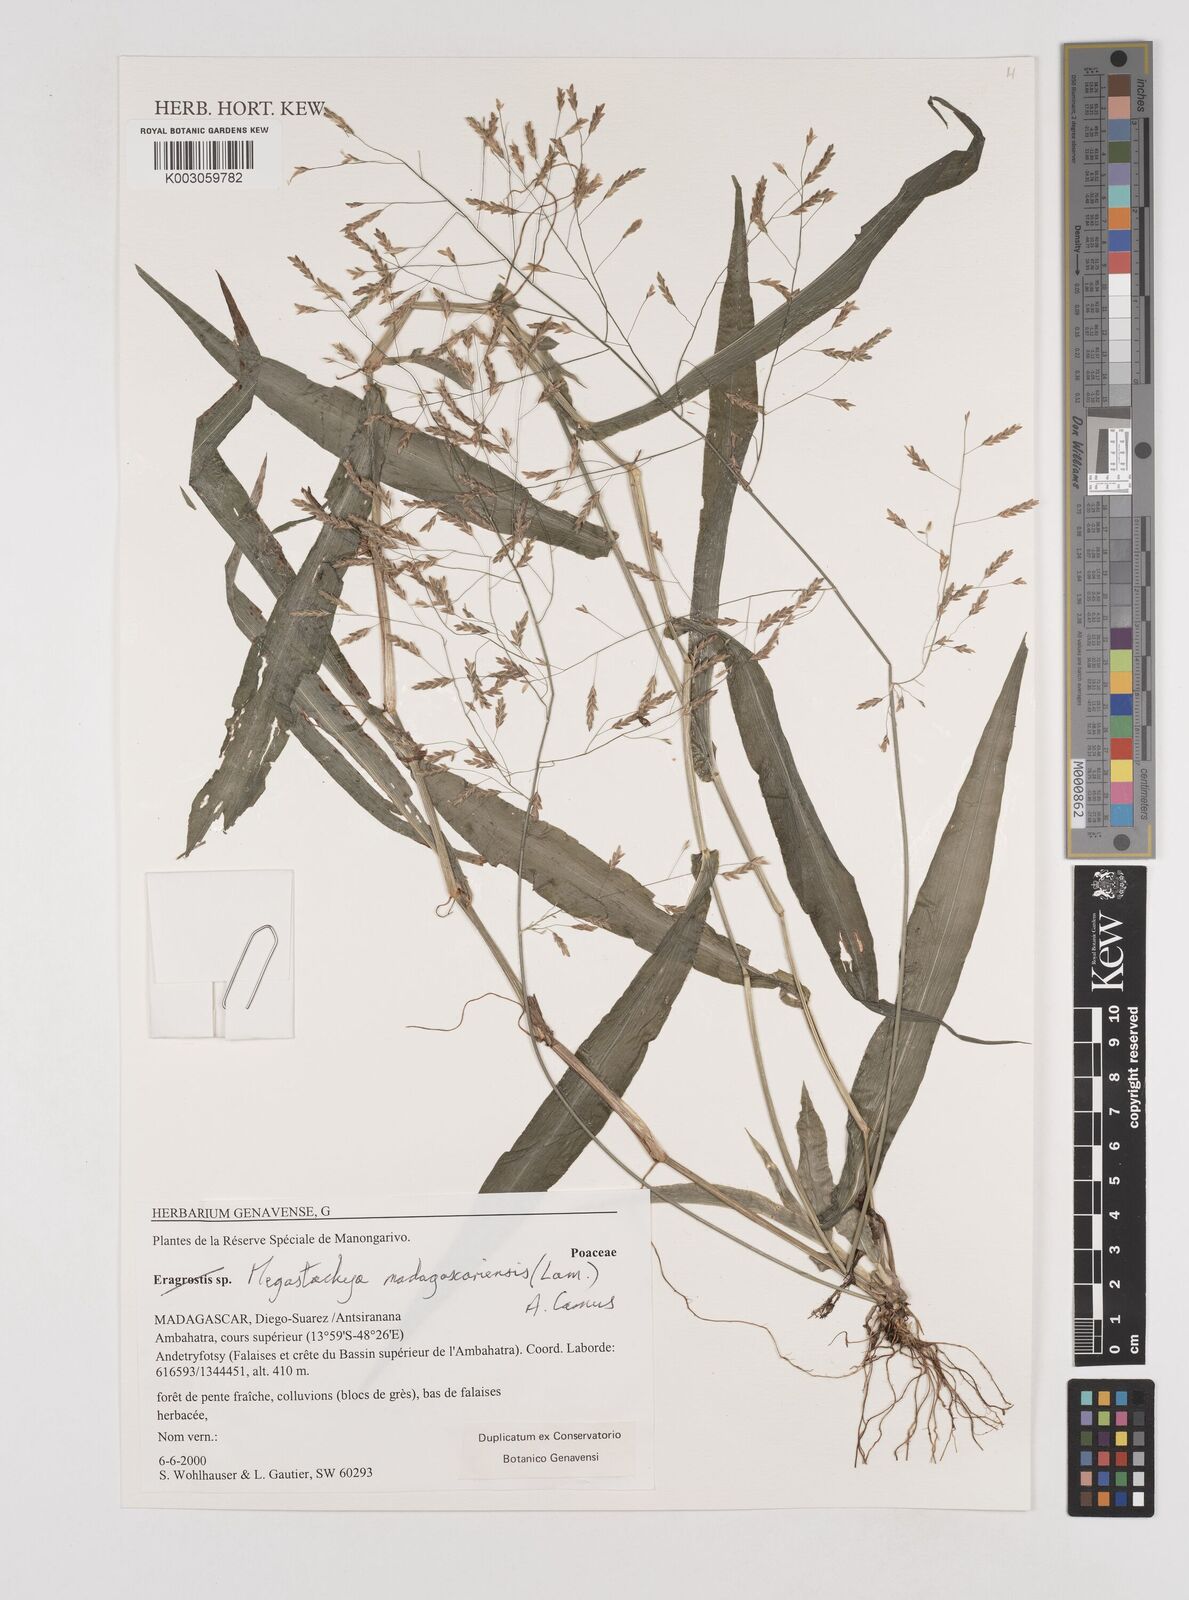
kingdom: Plantae
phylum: Tracheophyta
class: Liliopsida
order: Poales
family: Poaceae
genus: Megastachya
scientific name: Megastachya madagascariensis
